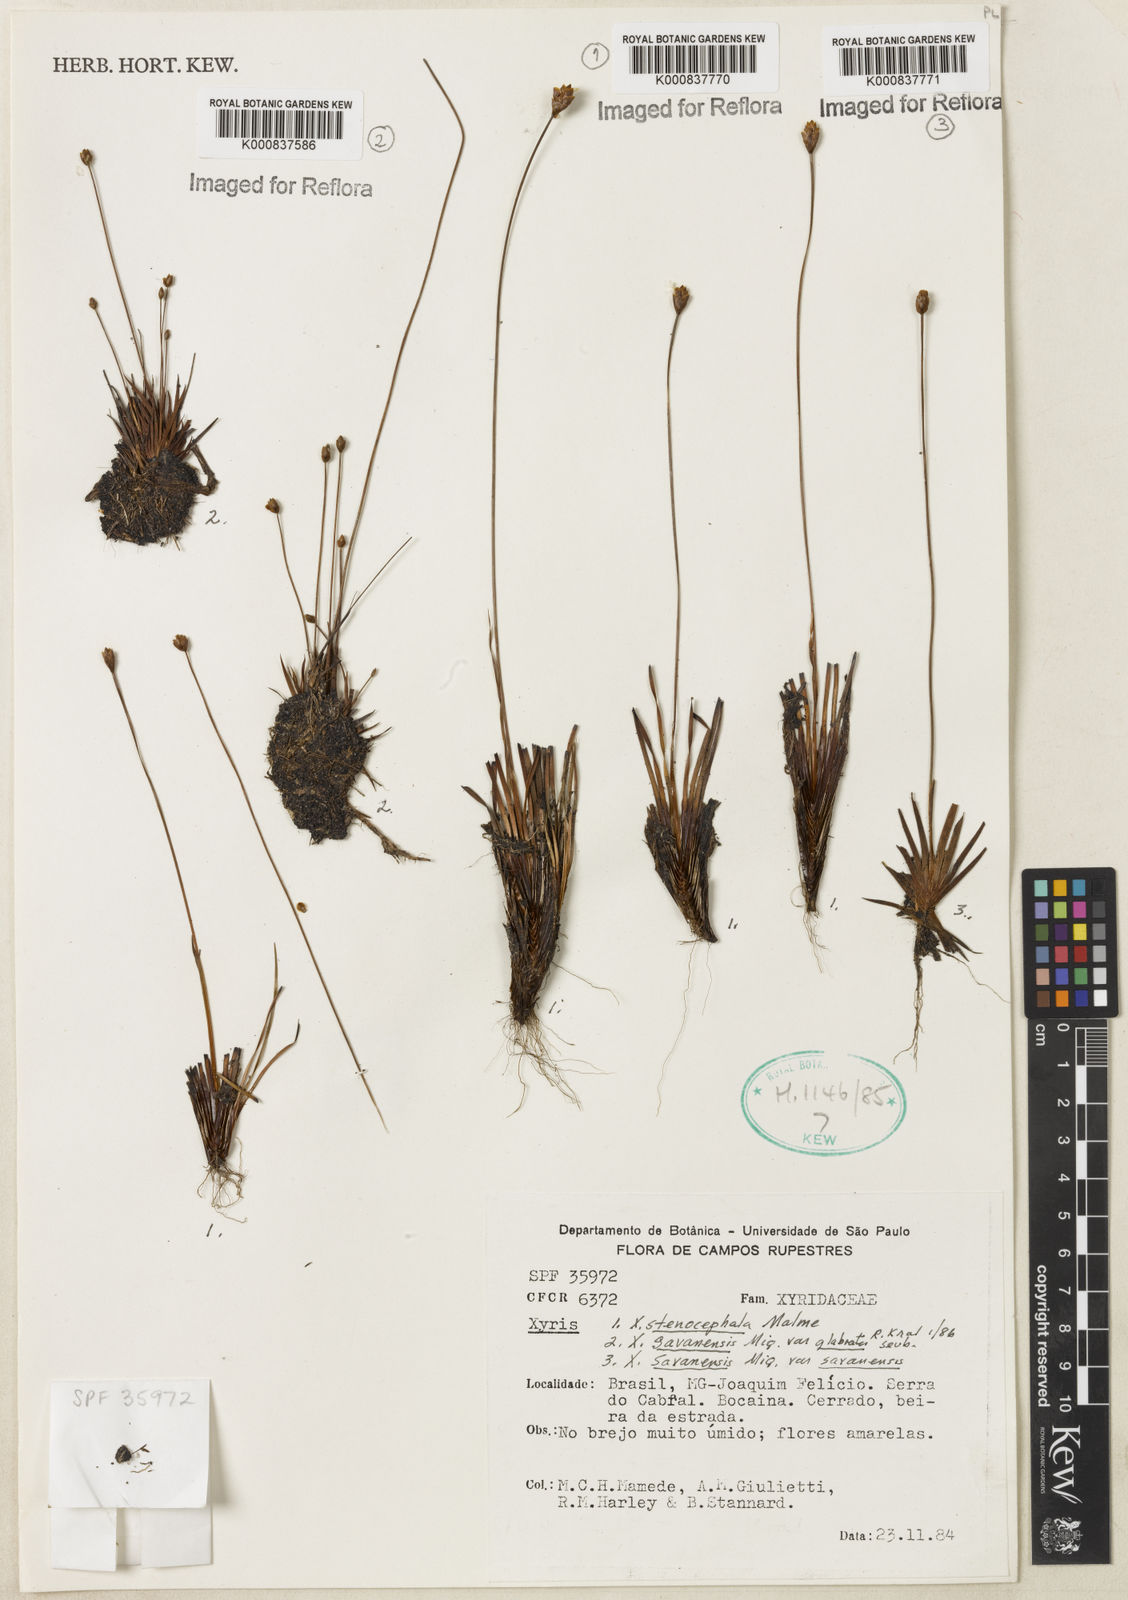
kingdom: Plantae
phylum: Tracheophyta
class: Liliopsida
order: Poales
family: Xyridaceae
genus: Xyris
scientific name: Xyris stenocephala
